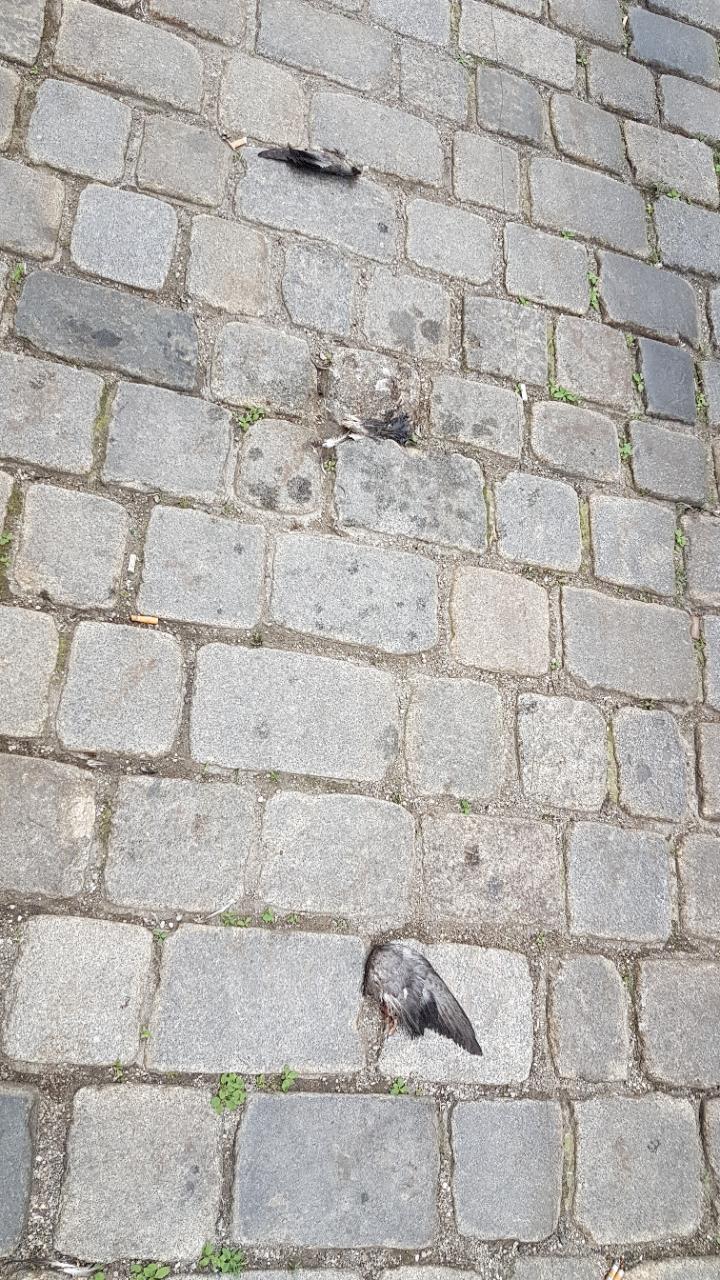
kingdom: Animalia
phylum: Chordata
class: Aves
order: Columbiformes
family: Columbidae
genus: Columba
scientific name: Columba livia
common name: Rock pigeon
